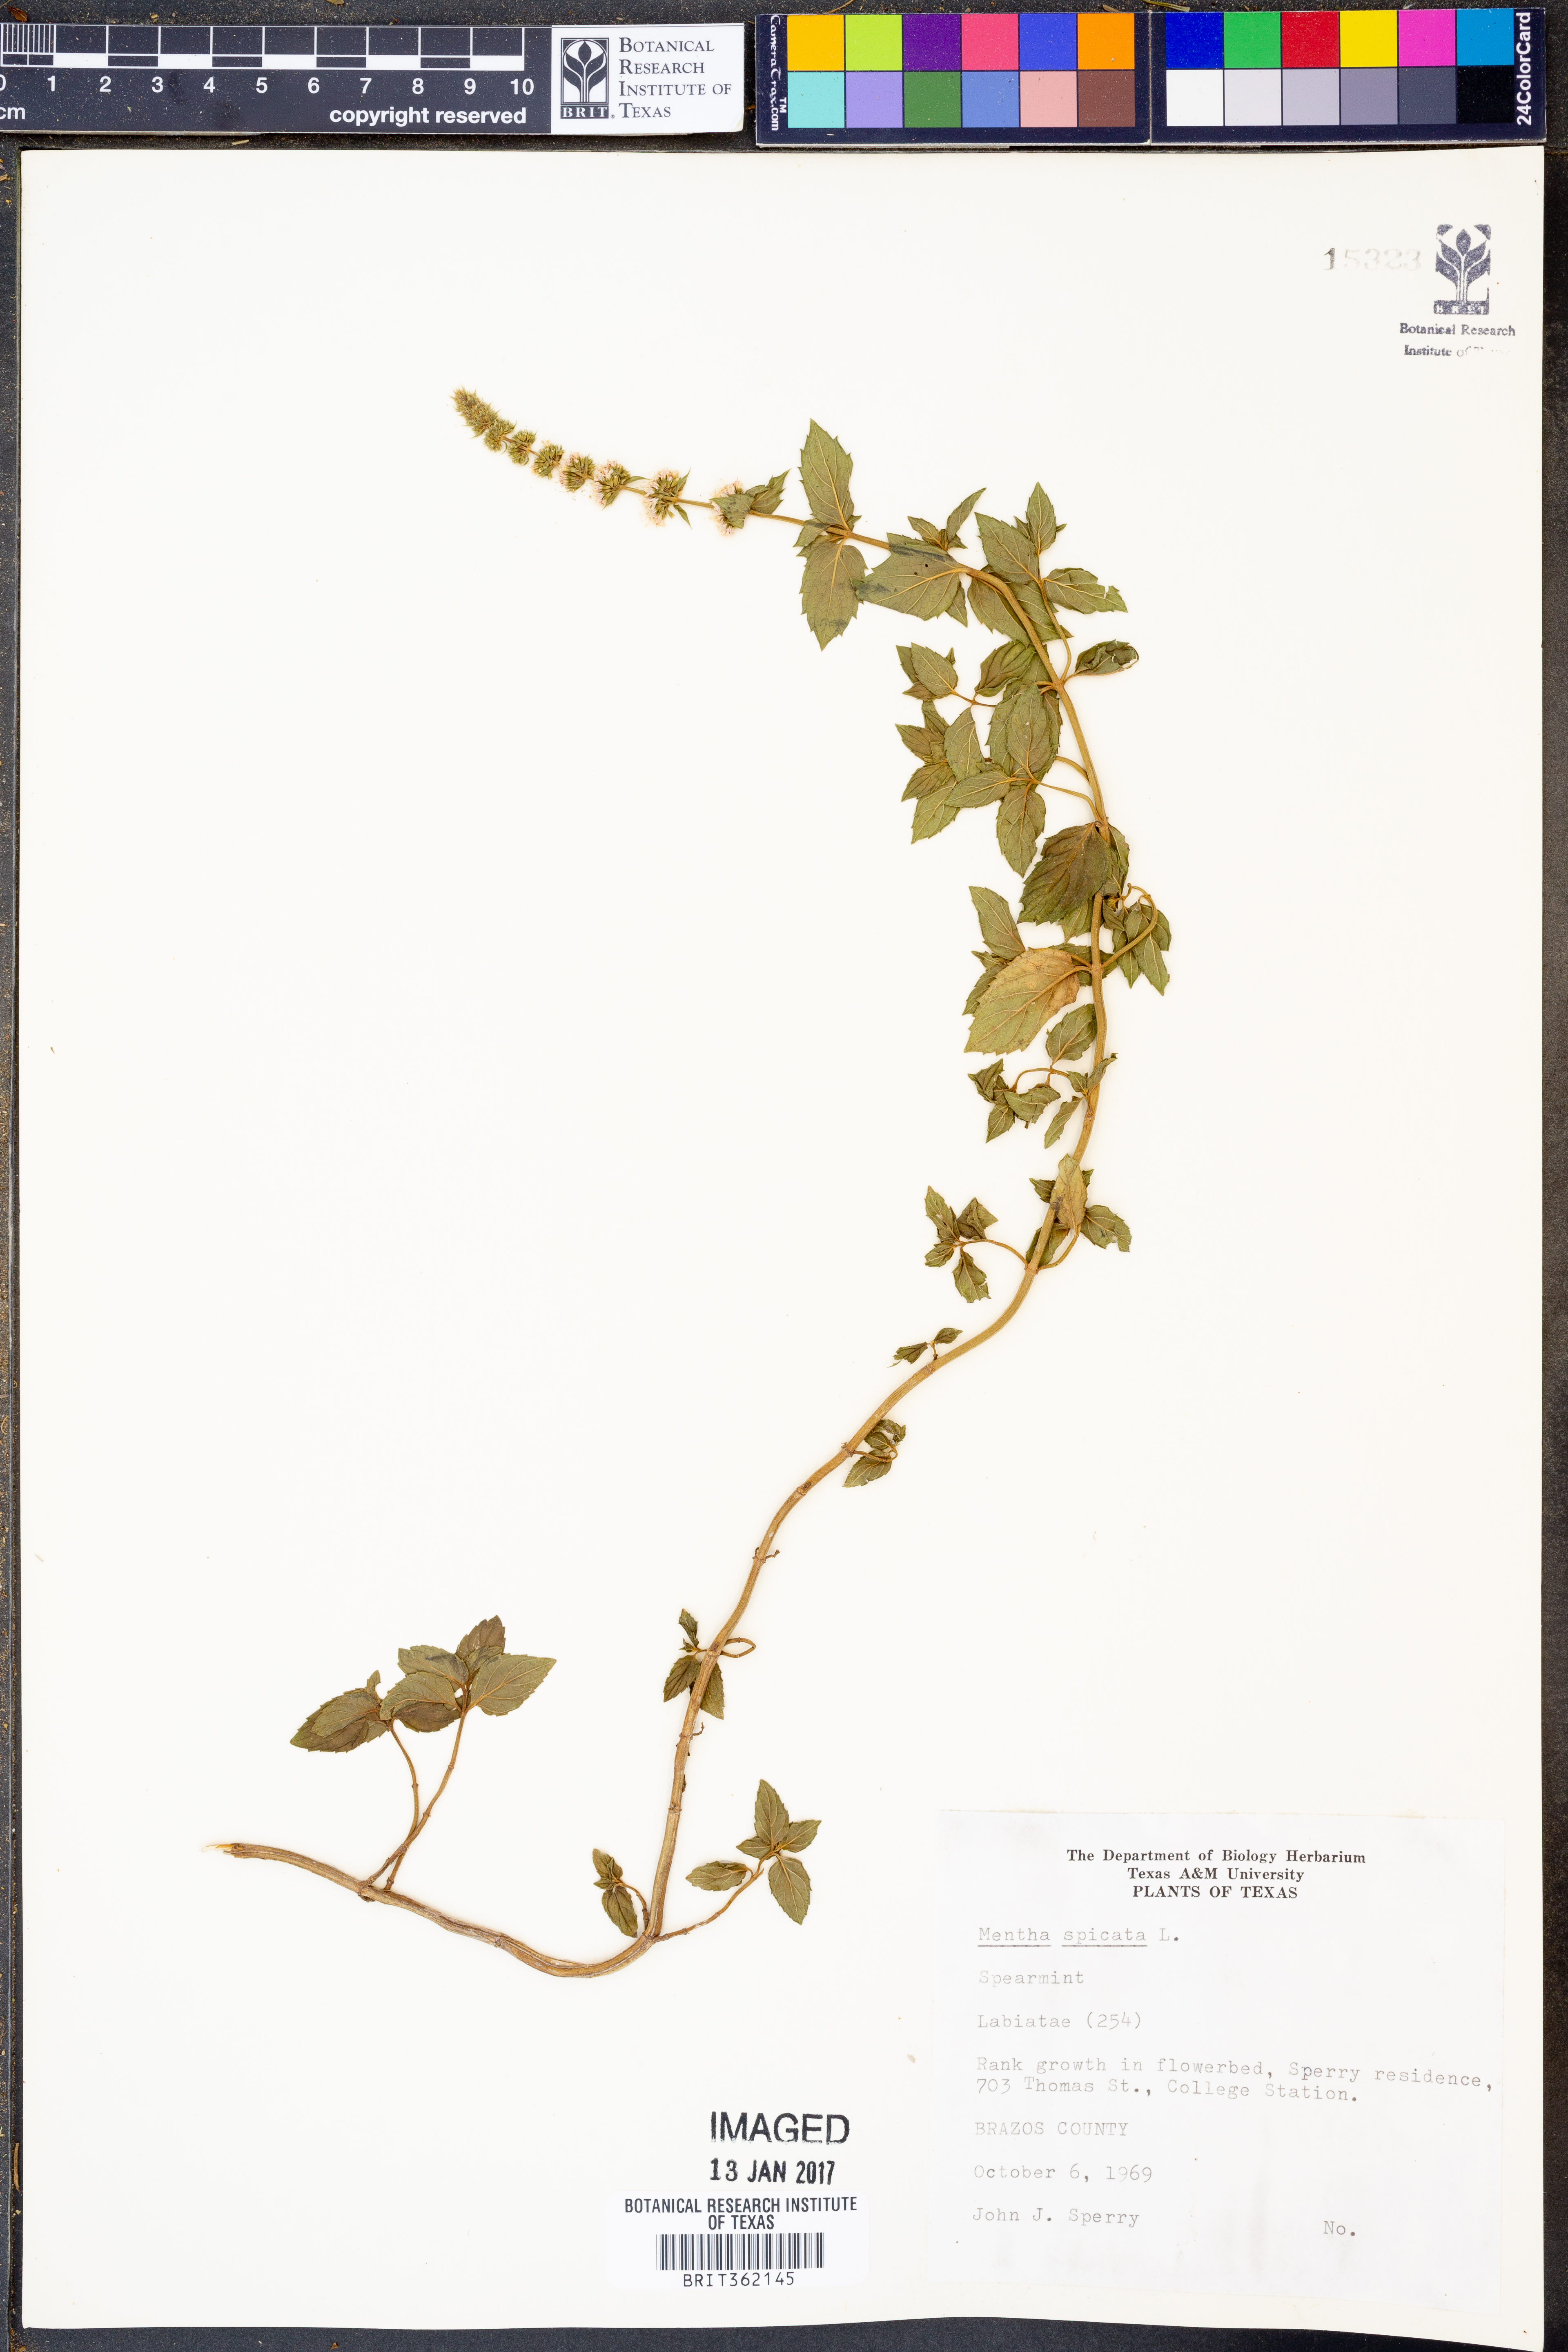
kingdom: Plantae
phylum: Tracheophyta
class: Magnoliopsida
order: Lamiales
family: Lamiaceae
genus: Mentha
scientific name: Mentha spicata
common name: Spearmint
